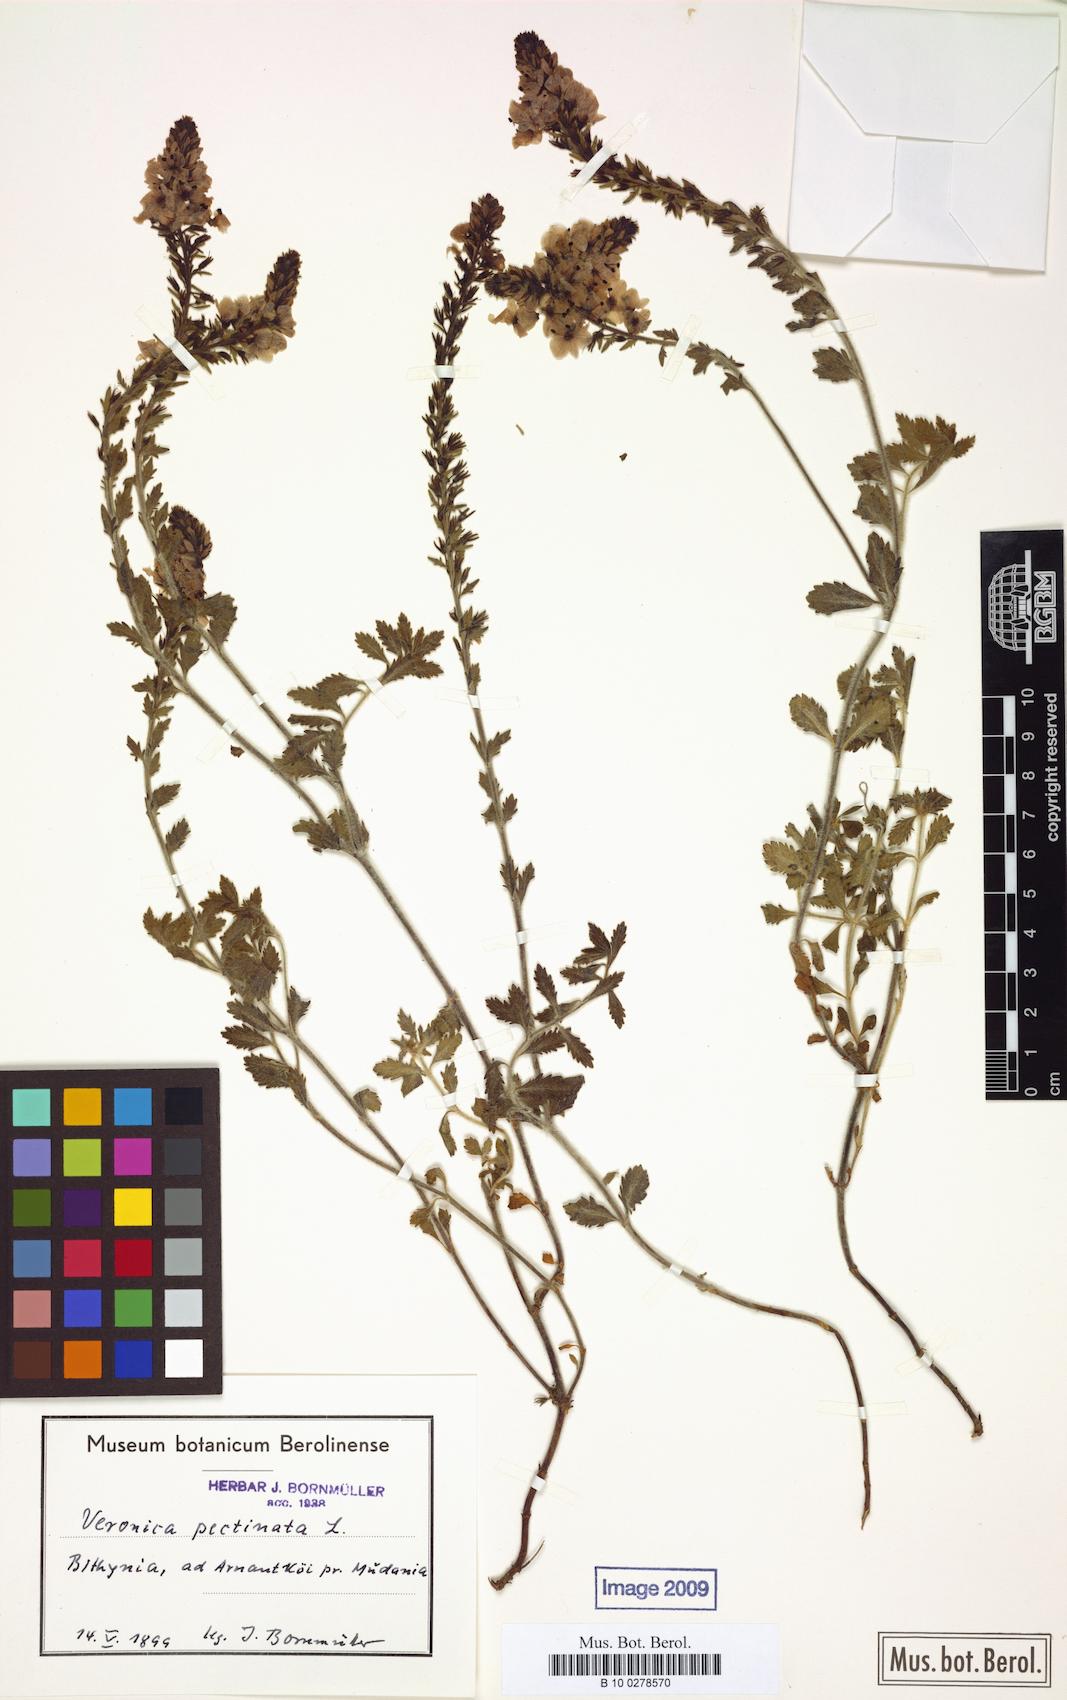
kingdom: Plantae
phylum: Tracheophyta
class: Magnoliopsida
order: Lamiales
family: Plantaginaceae
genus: Veronica
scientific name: Veronica pectinata
